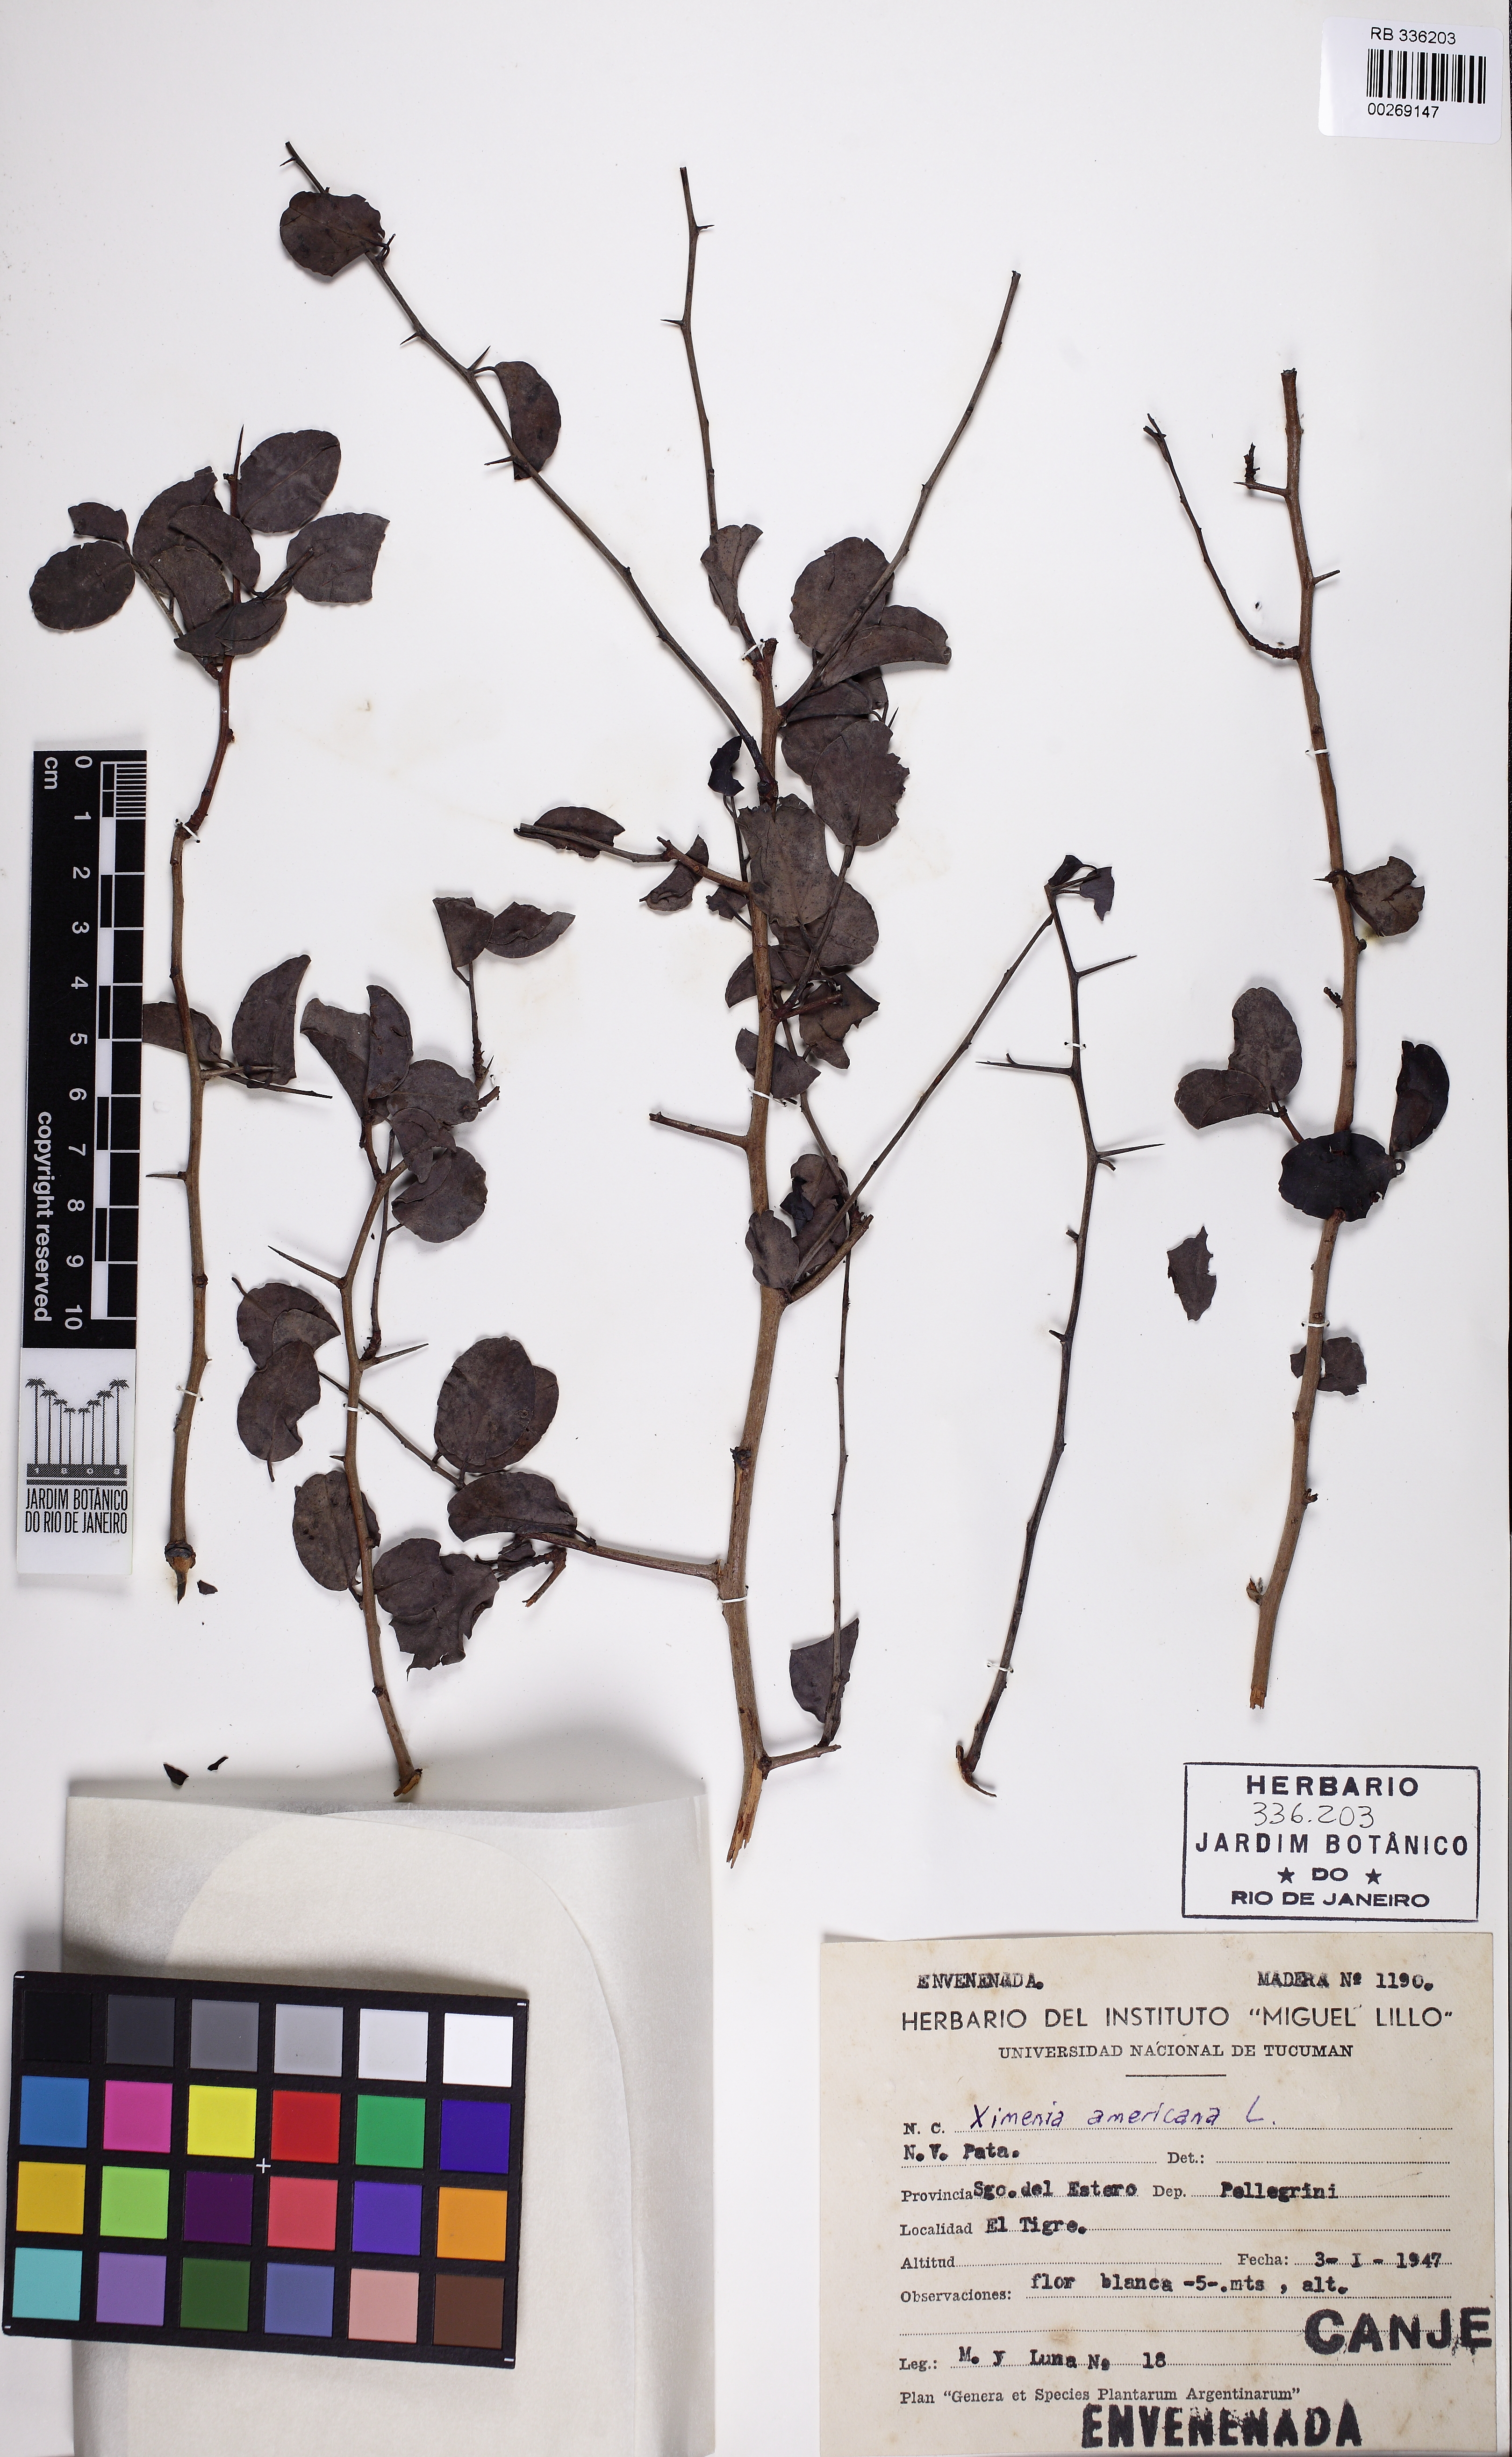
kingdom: Plantae
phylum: Tracheophyta
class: Magnoliopsida
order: Santalales
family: Ximeniaceae
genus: Ximenia
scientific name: Ximenia americana
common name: Tallowwood
